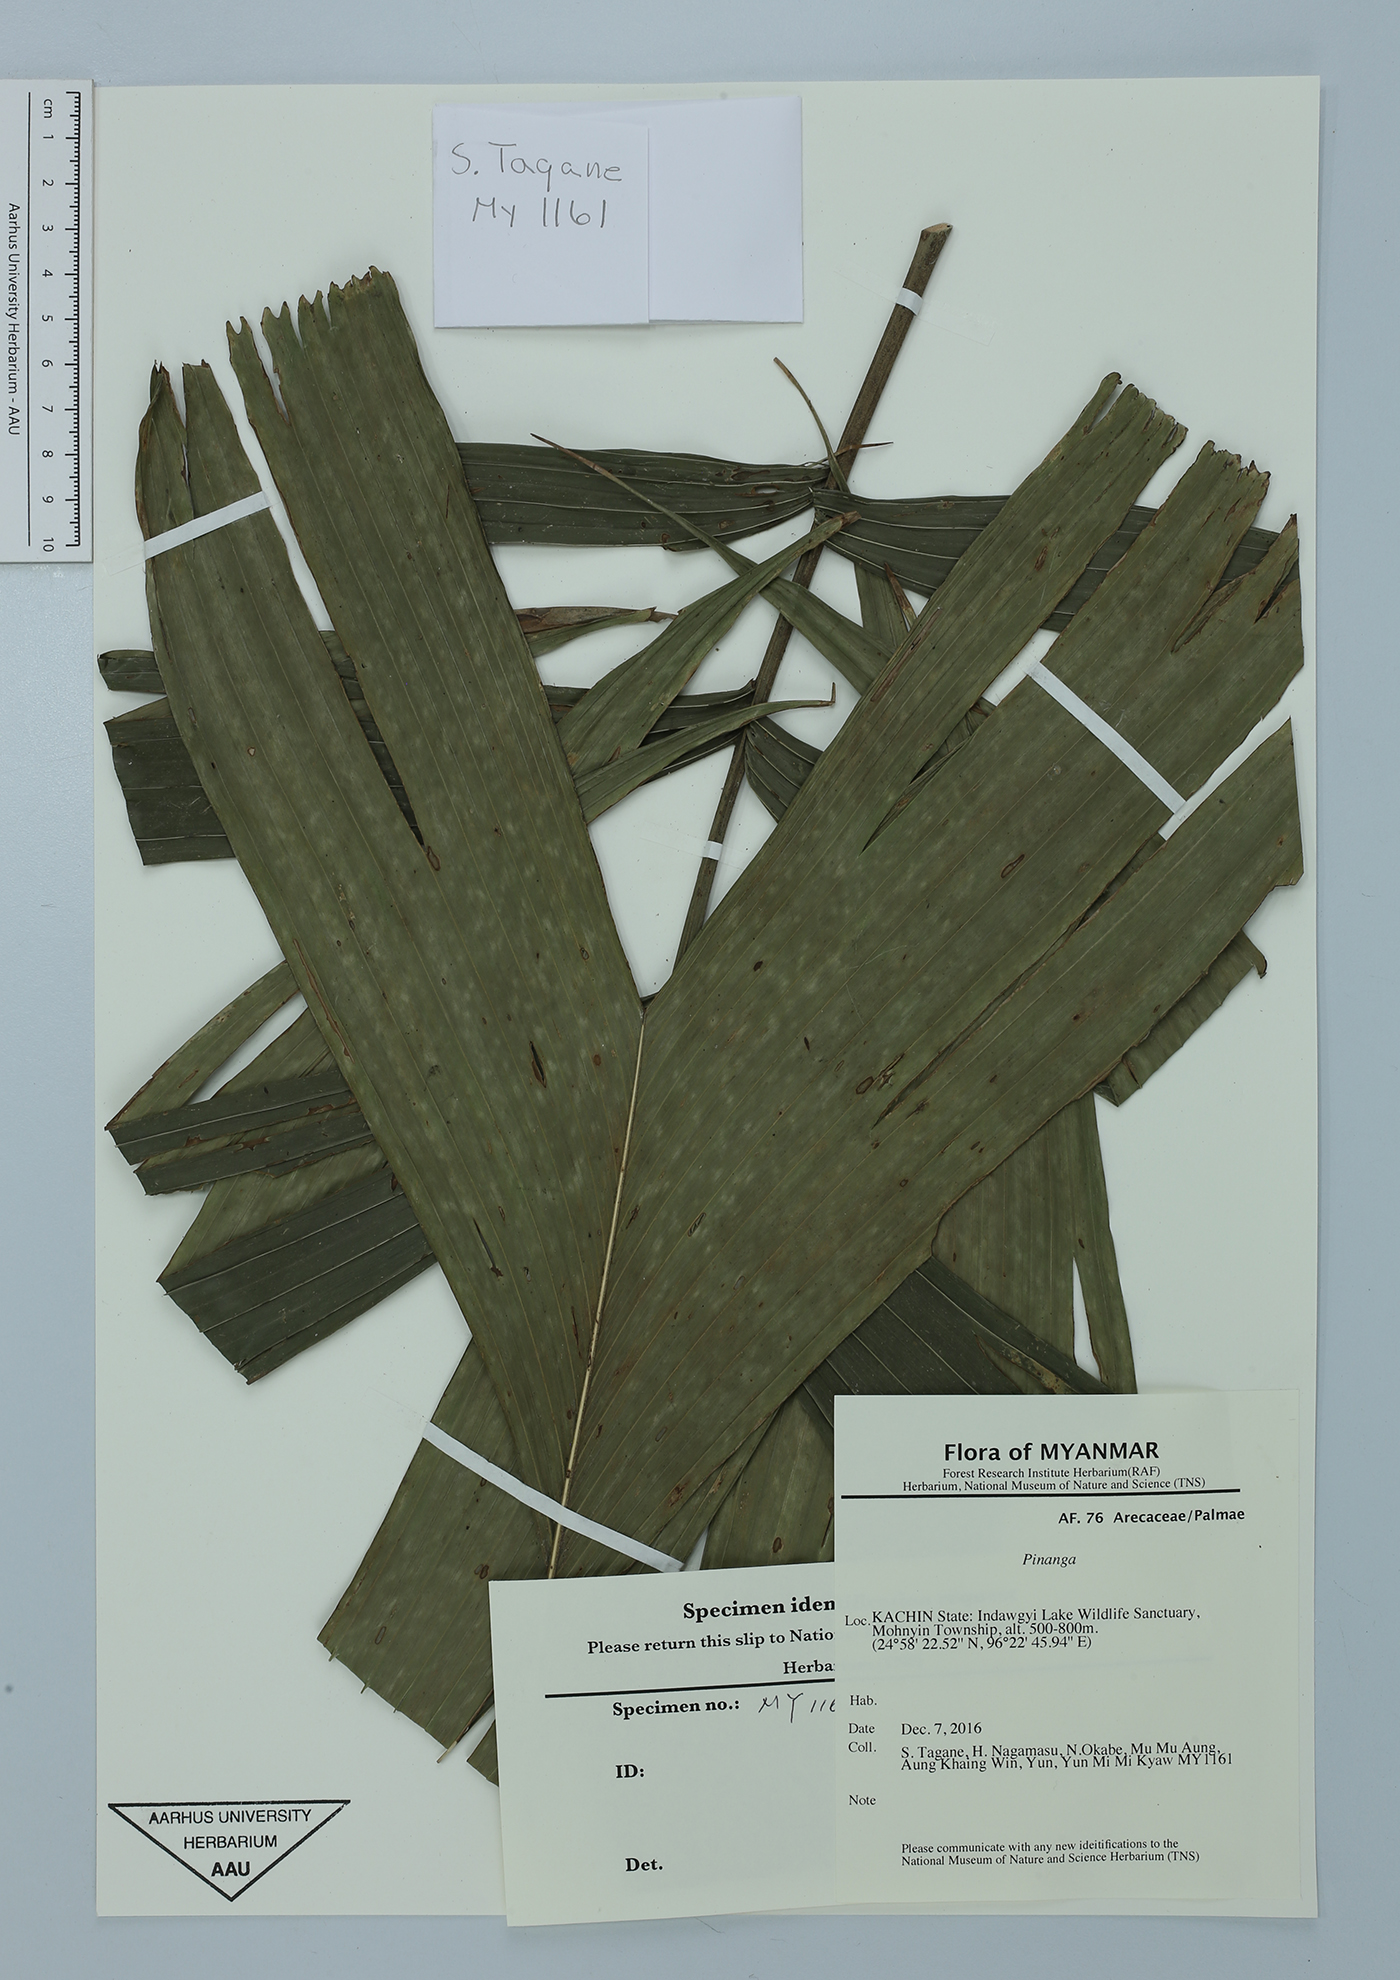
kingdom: Plantae
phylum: Tracheophyta
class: Liliopsida
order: Arecales
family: Arecaceae
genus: Pinanga
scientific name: Pinanga
